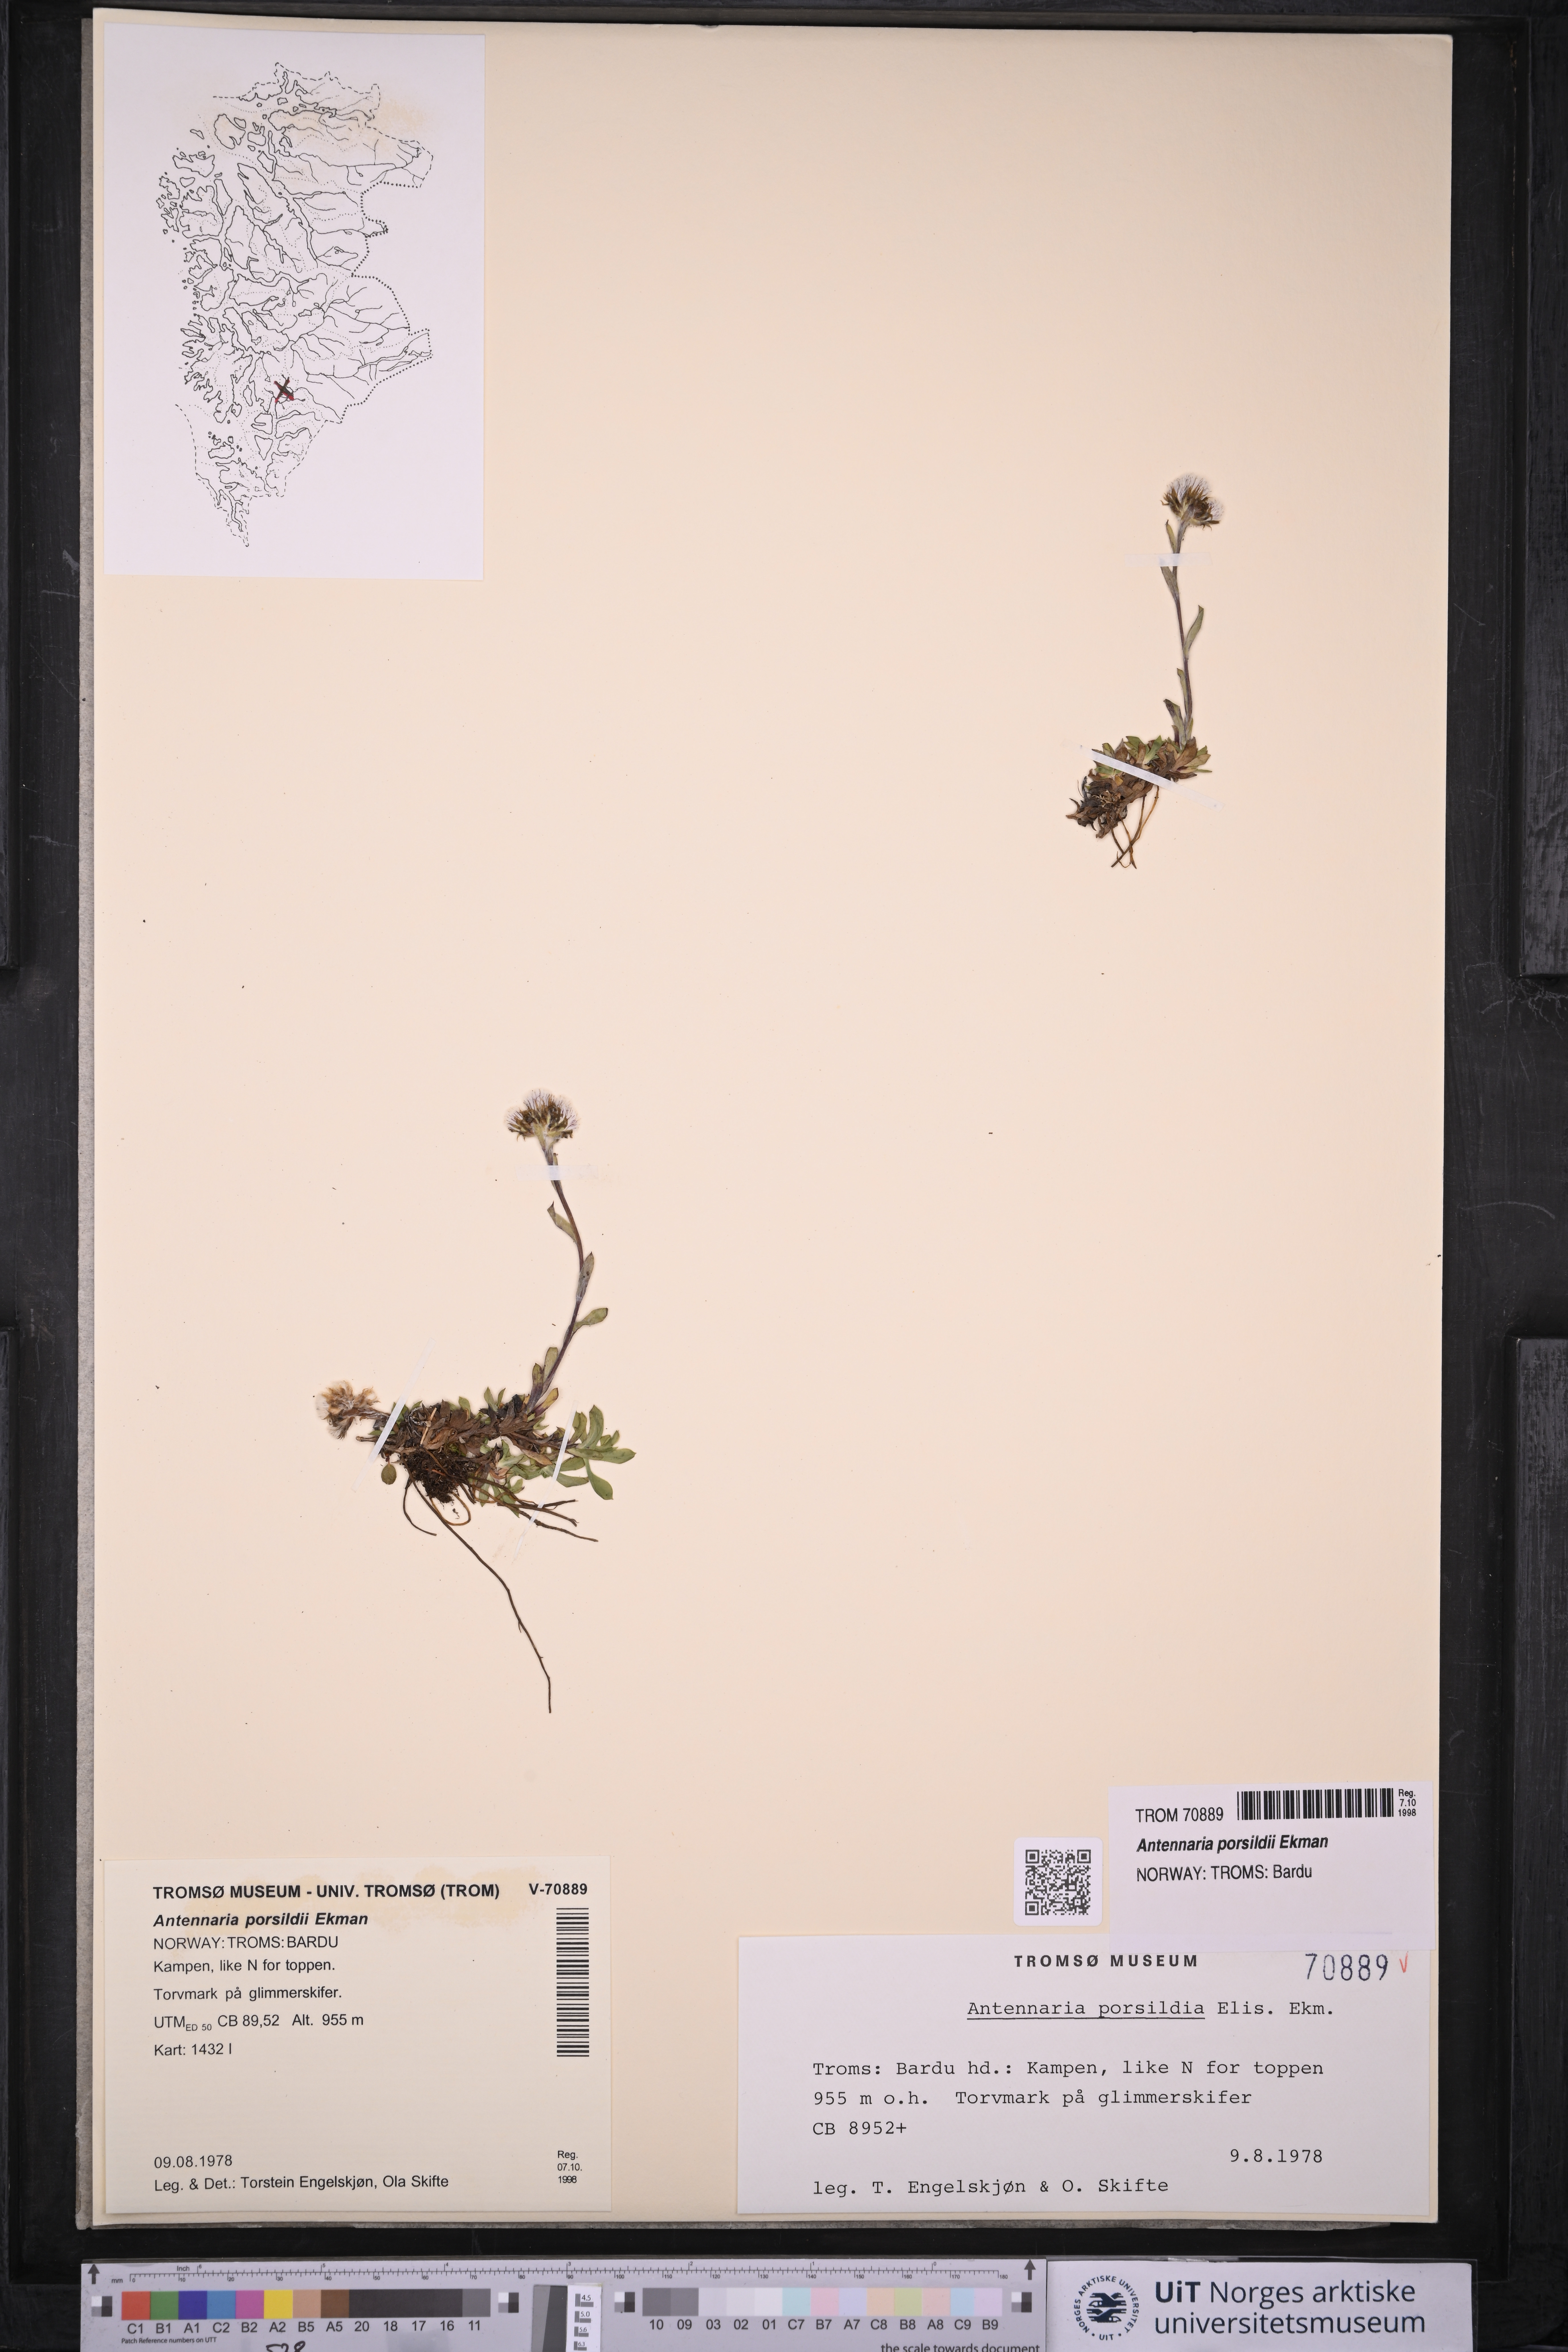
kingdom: Plantae
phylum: Tracheophyta
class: Magnoliopsida
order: Asterales
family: Asteraceae
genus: Antennaria
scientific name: Antennaria porsildii
